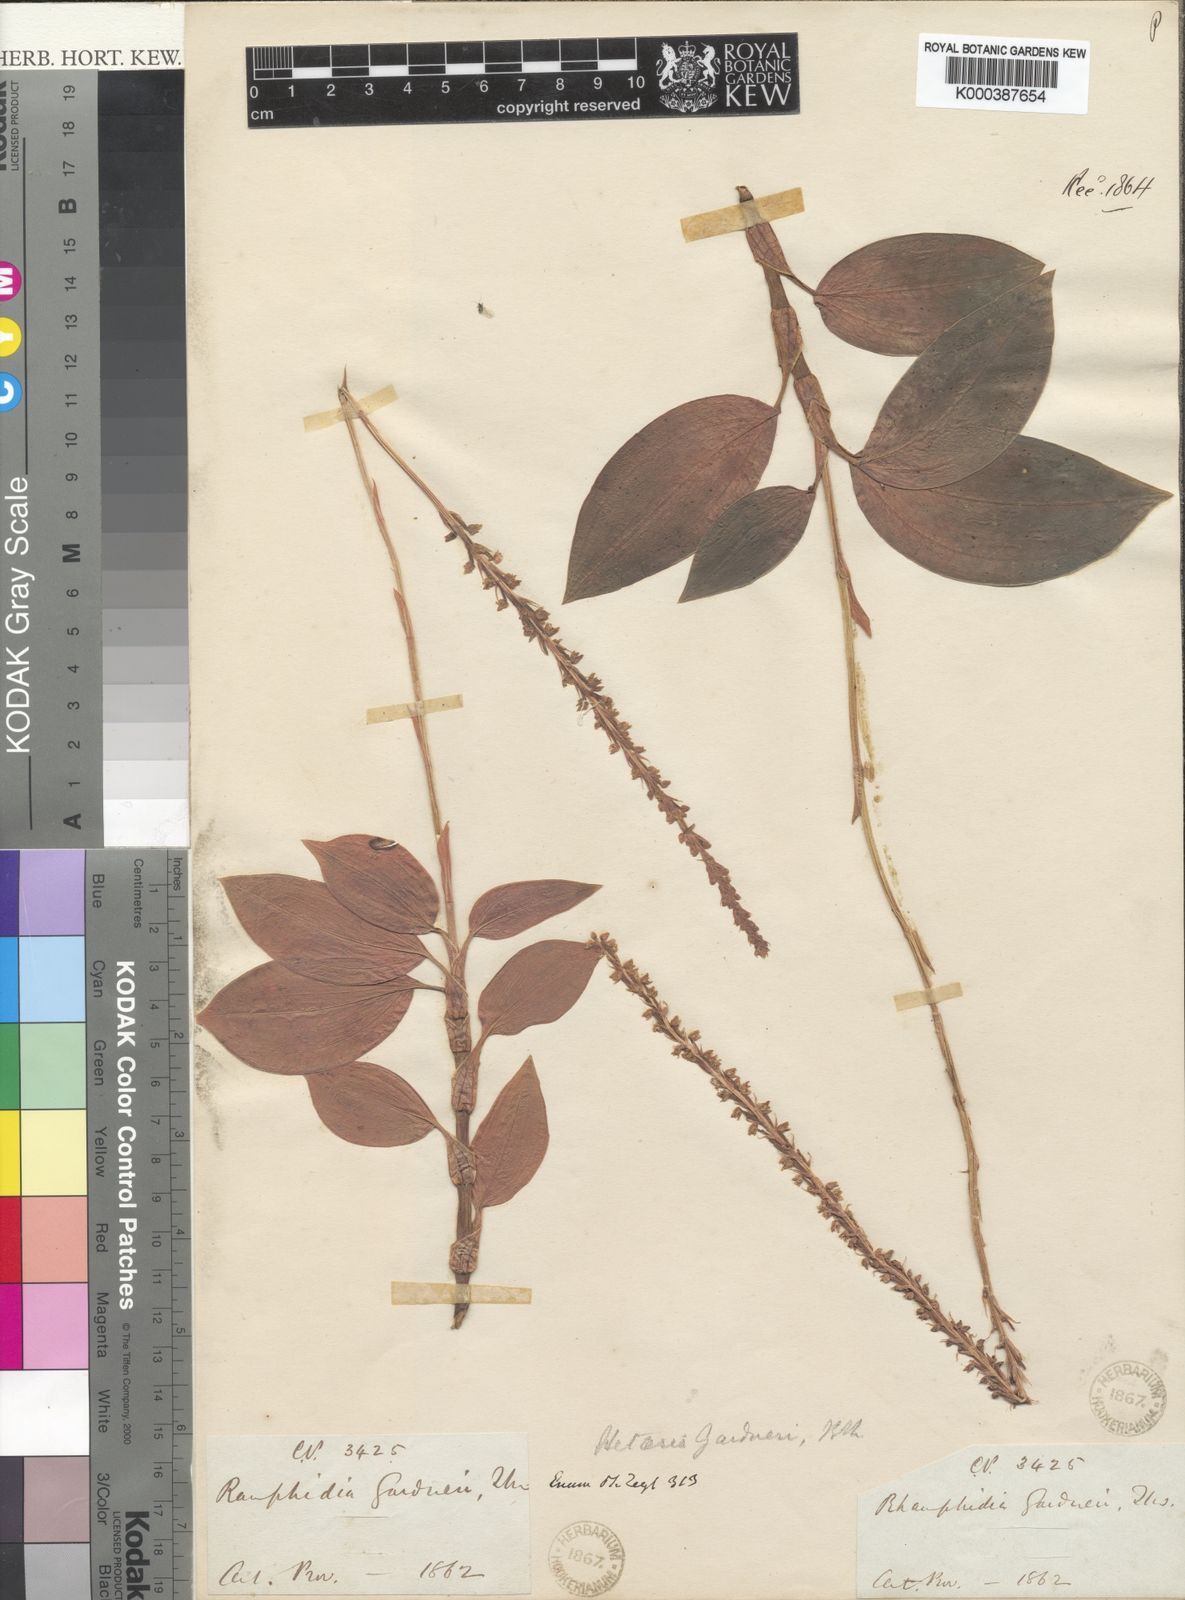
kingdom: Plantae
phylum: Tracheophyta
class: Liliopsida
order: Asparagales
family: Orchidaceae
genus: Hetaeria
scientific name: Hetaeria
